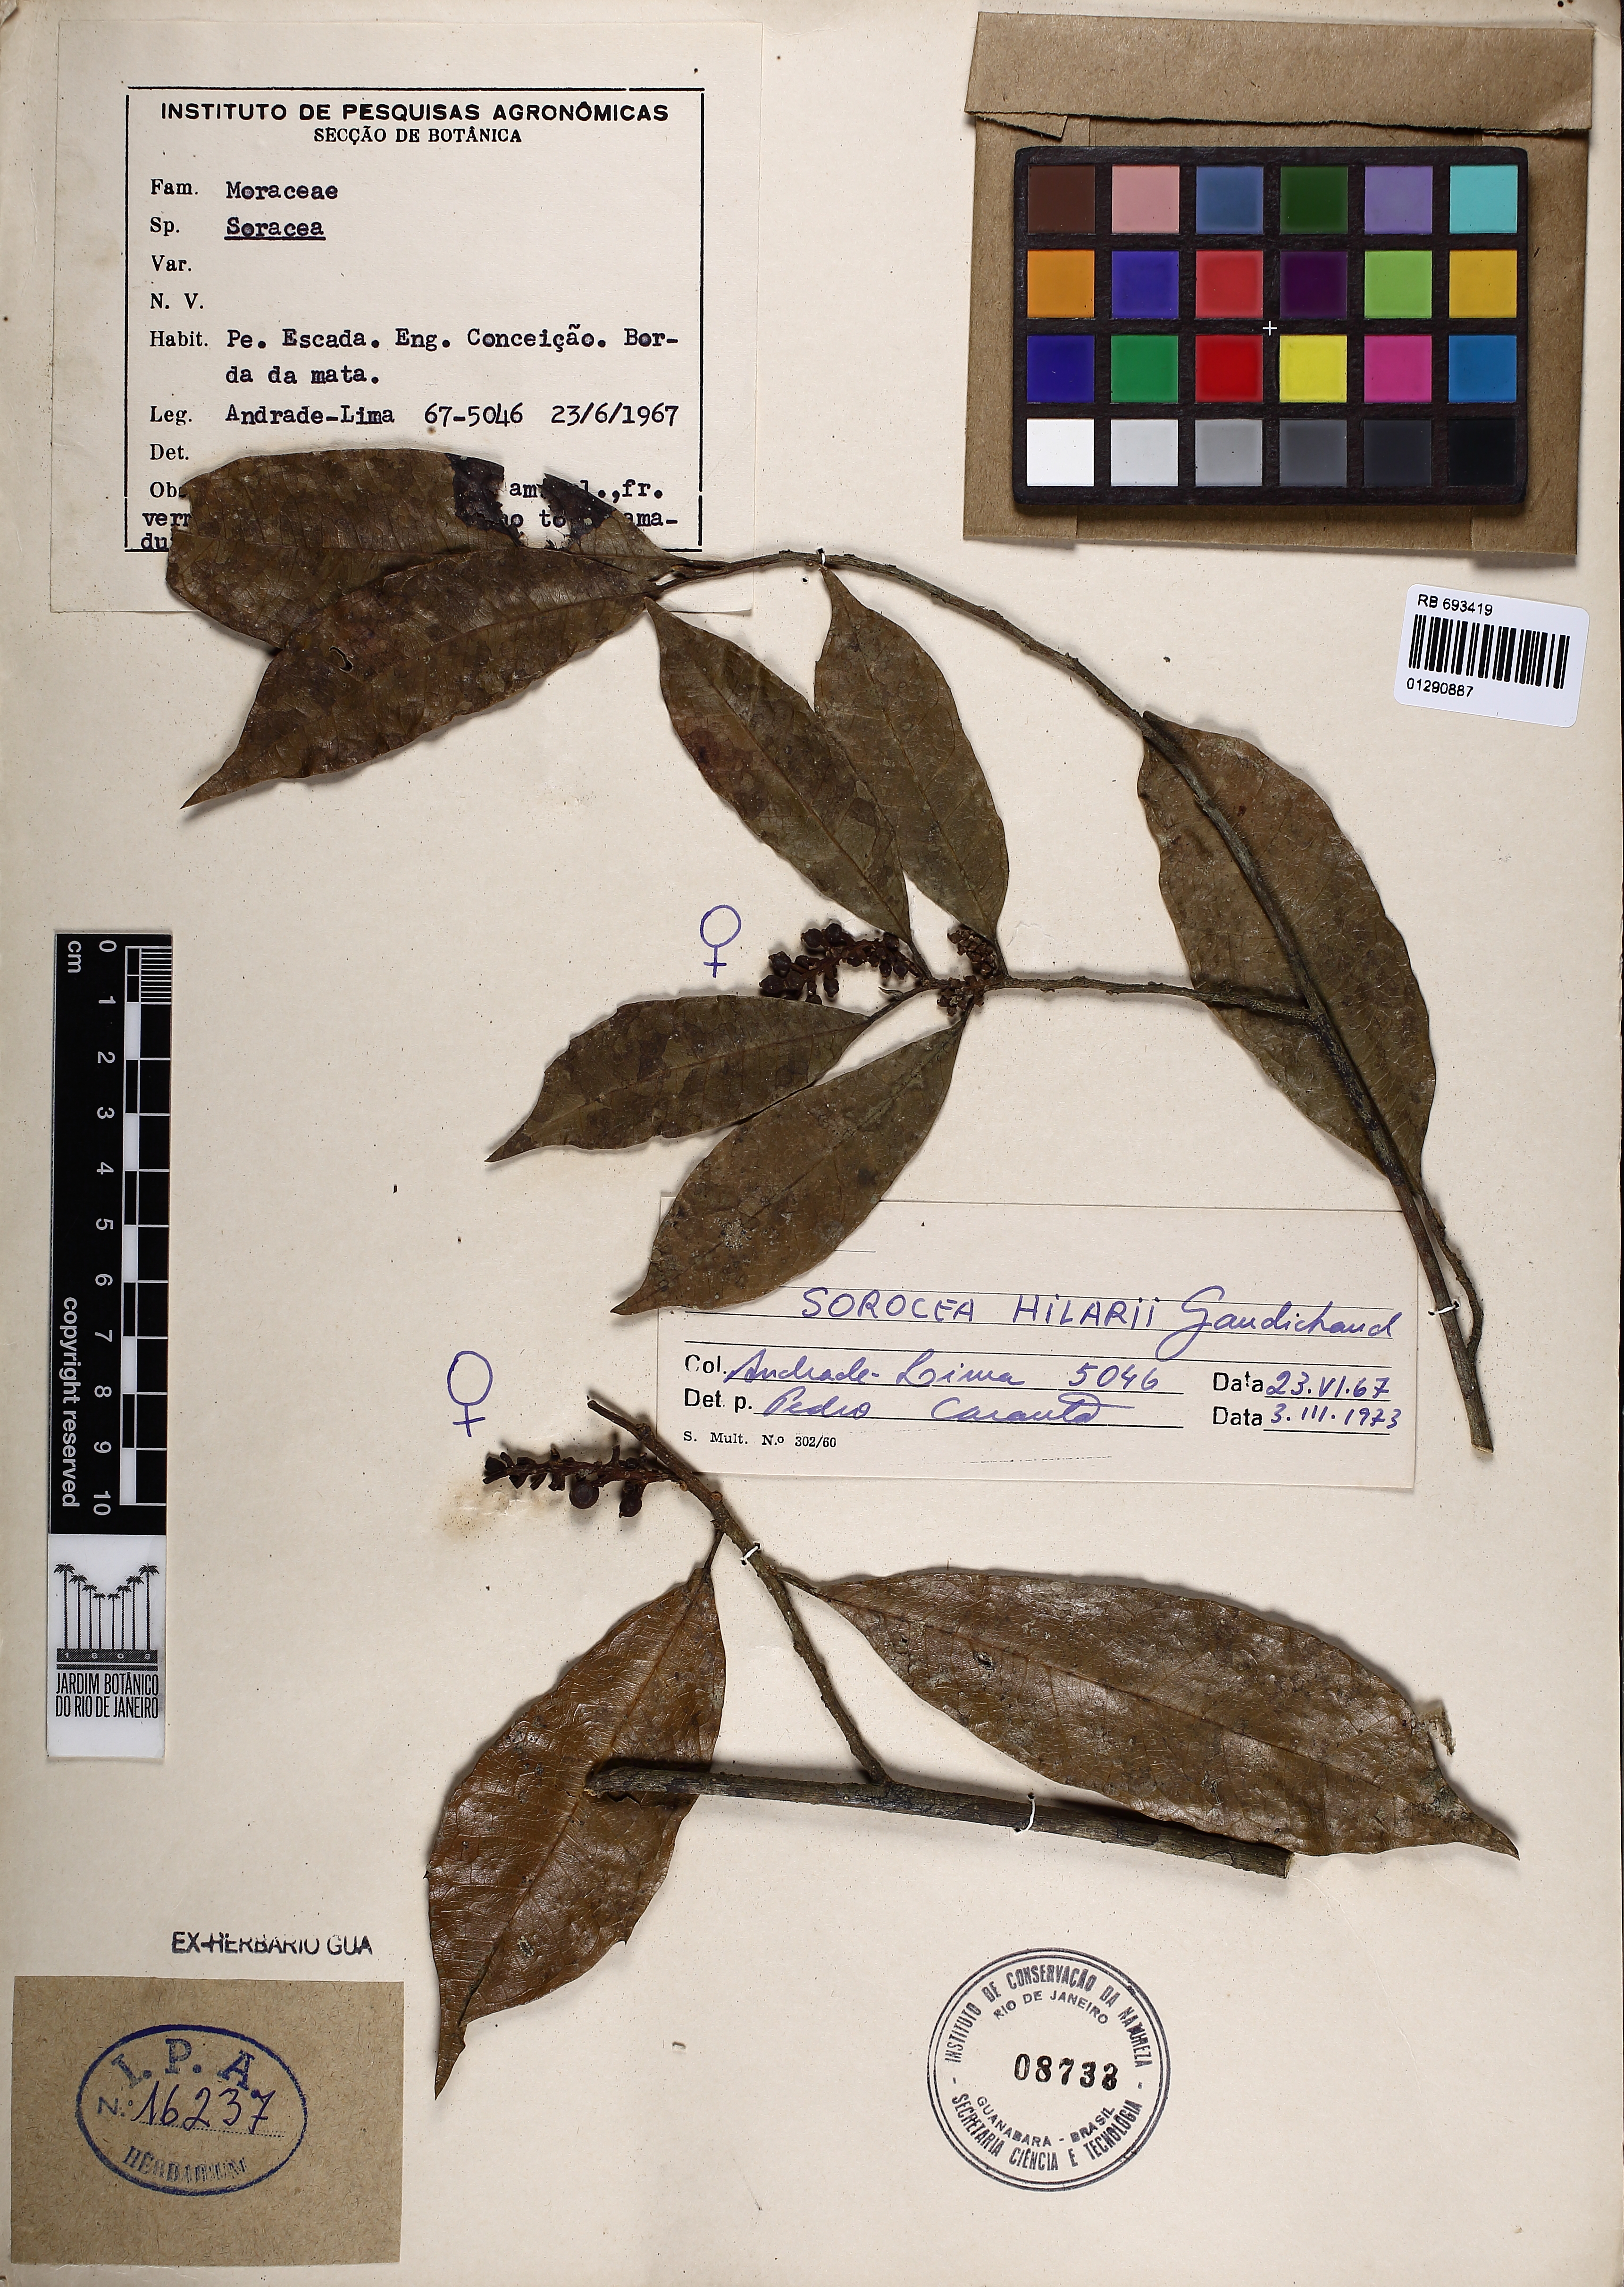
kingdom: Plantae
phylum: Tracheophyta
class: Magnoliopsida
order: Rosales
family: Moraceae
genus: Sorocea
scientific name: Sorocea hilarii
